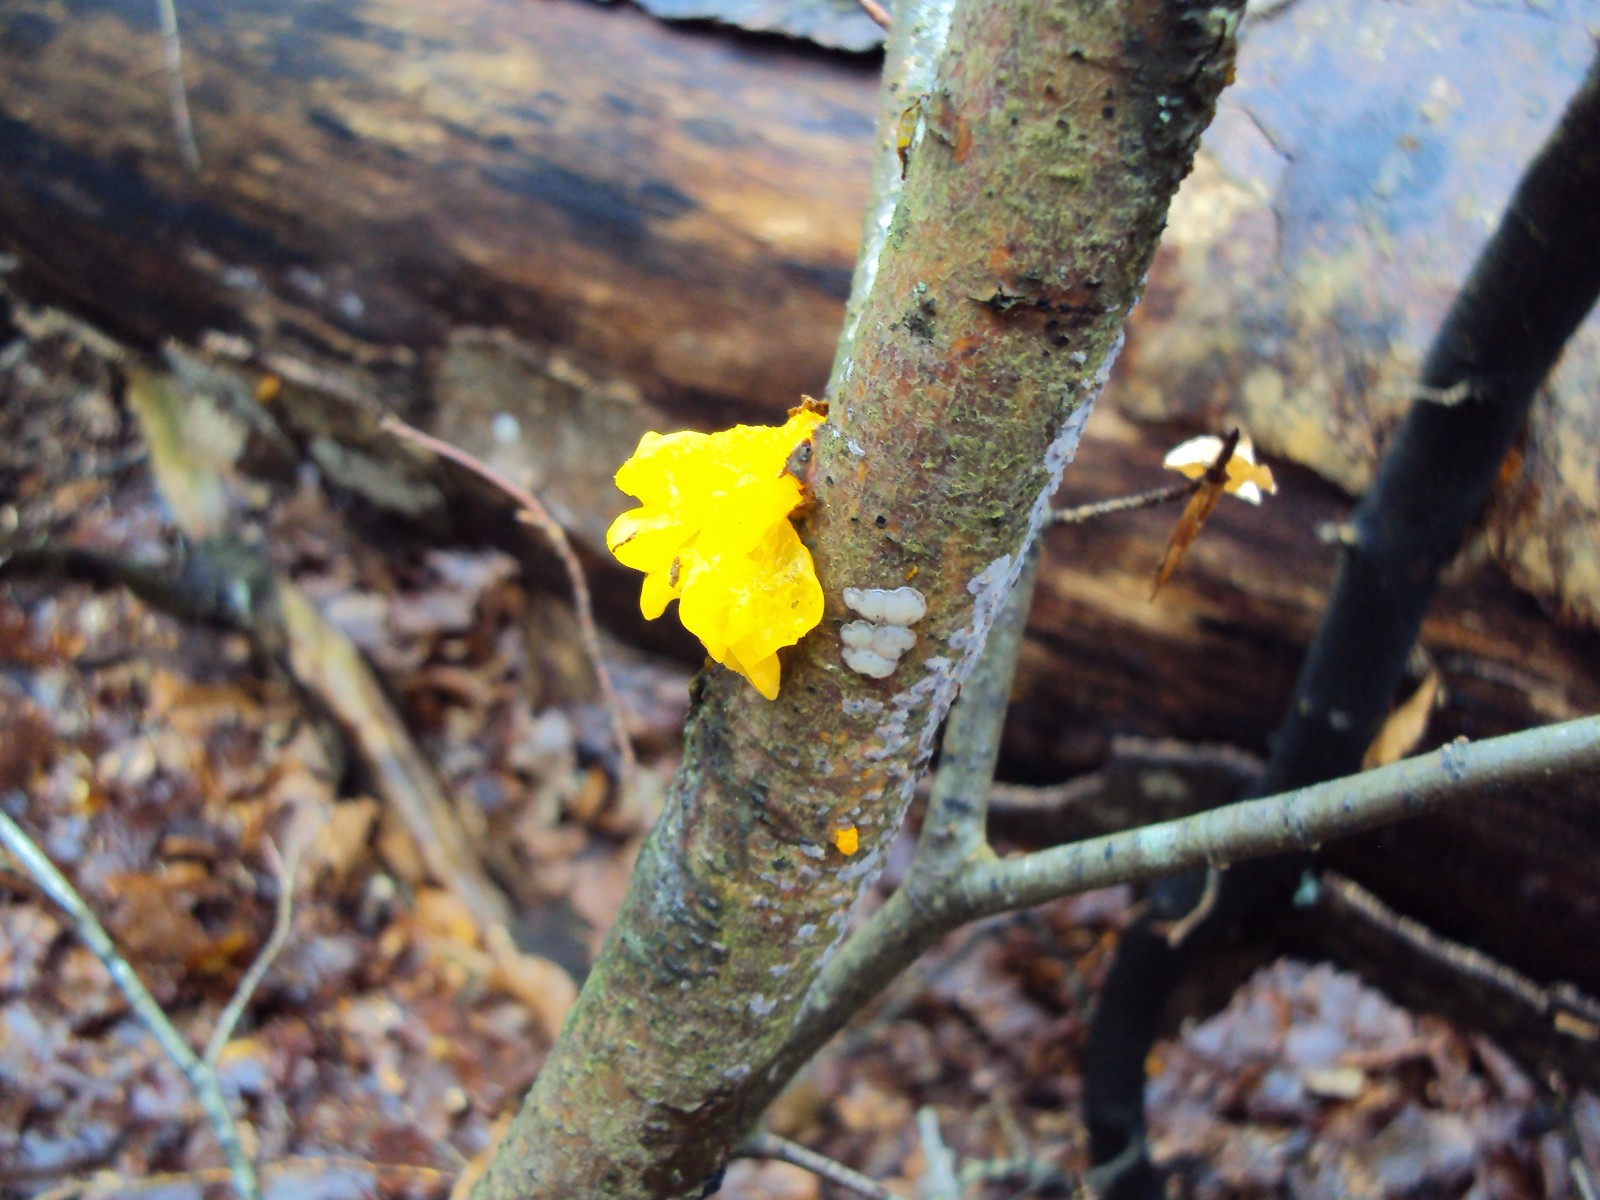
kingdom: Fungi
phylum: Basidiomycota
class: Tremellomycetes
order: Tremellales
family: Tremellaceae
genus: Tremella
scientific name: Tremella mesenterica
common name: gul bævresvamp
